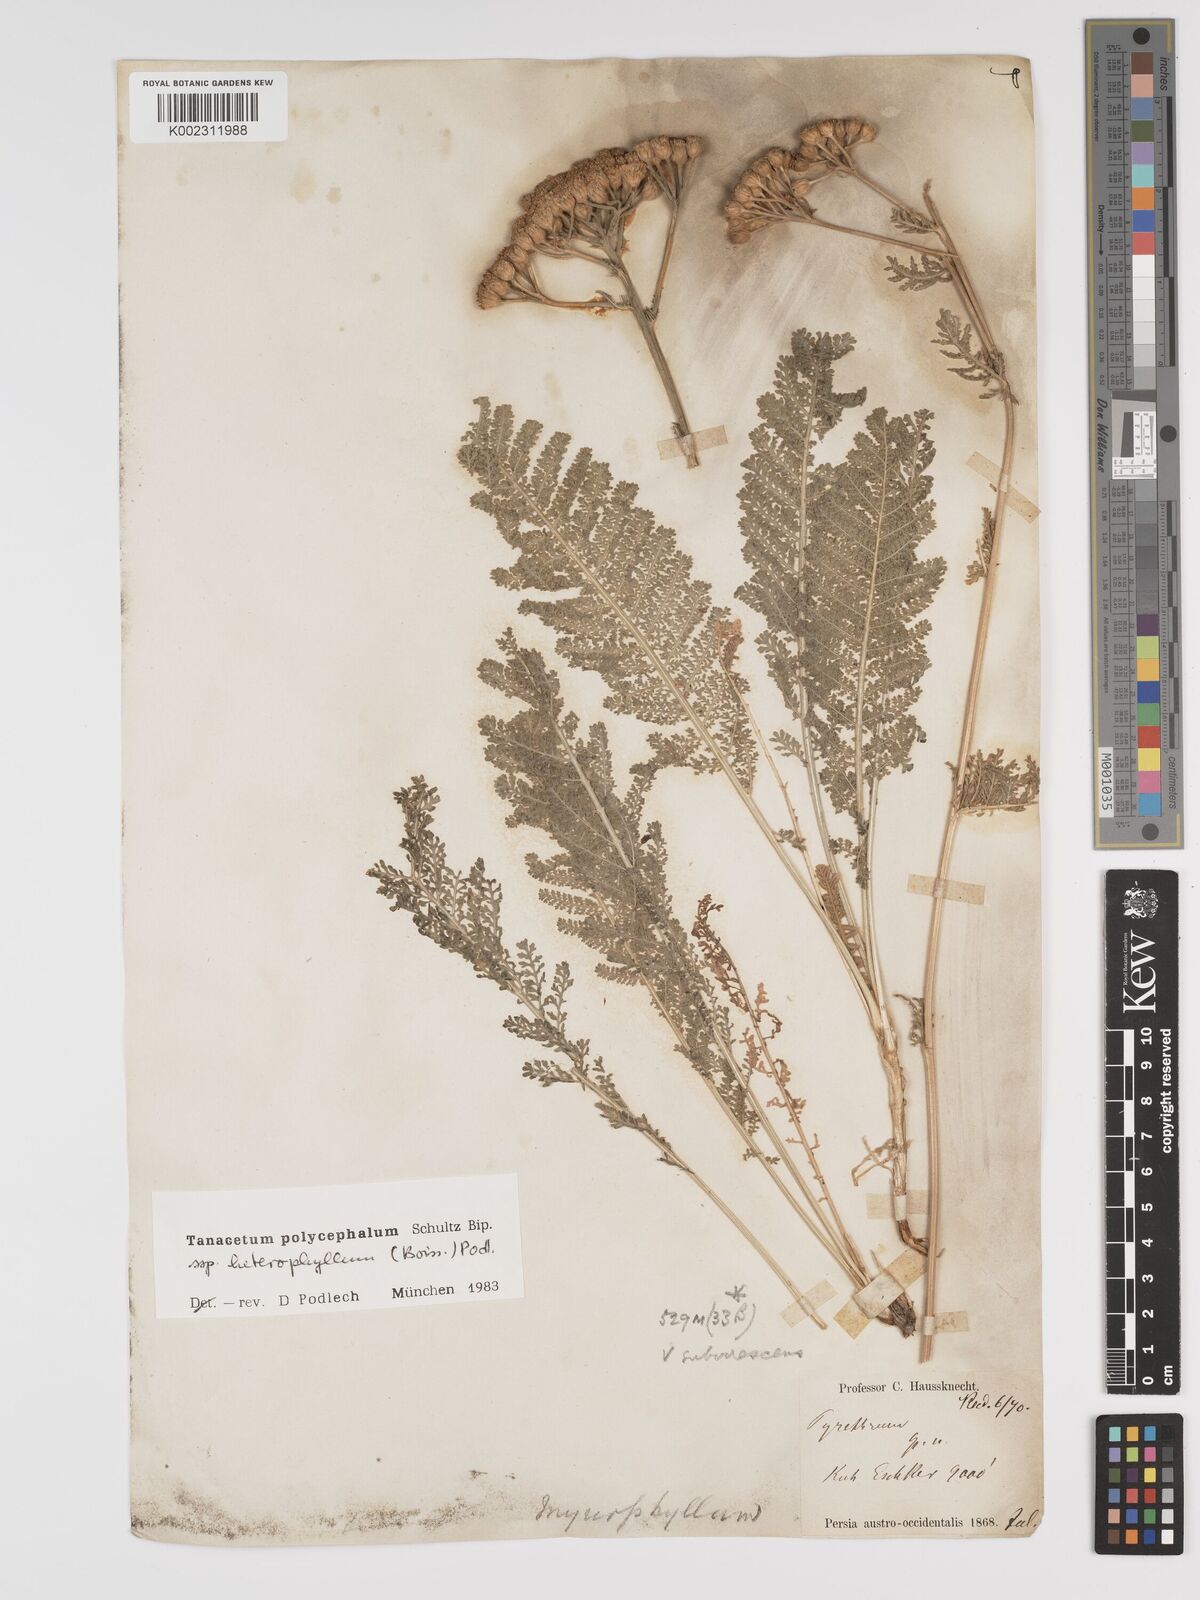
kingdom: Plantae
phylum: Tracheophyta
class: Magnoliopsida
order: Asterales
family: Asteraceae
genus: Tanacetum
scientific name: Tanacetum polycephalum
